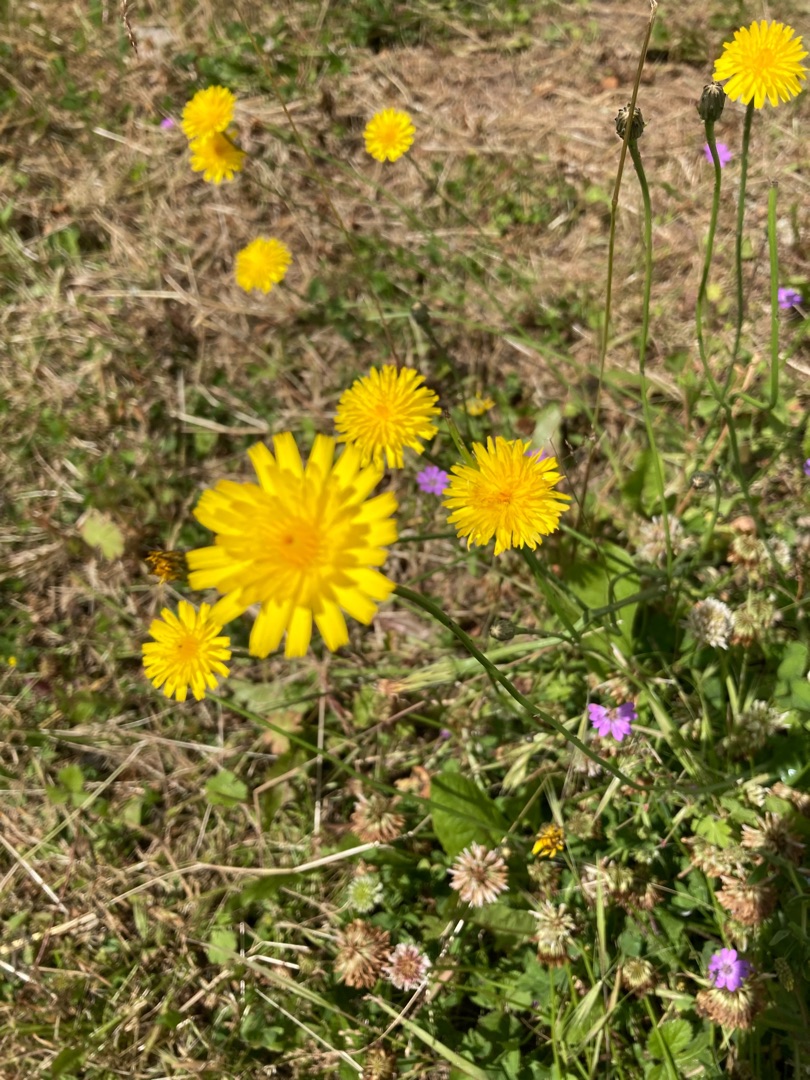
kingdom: Plantae
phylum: Tracheophyta
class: Magnoliopsida
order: Asterales
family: Asteraceae
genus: Hypochaeris
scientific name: Hypochaeris radicata
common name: Almindelig kongepen
